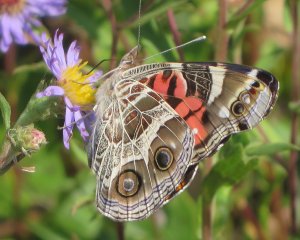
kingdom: Animalia
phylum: Arthropoda
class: Insecta
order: Lepidoptera
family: Nymphalidae
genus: Vanessa
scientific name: Vanessa virginiensis
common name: American Lady
